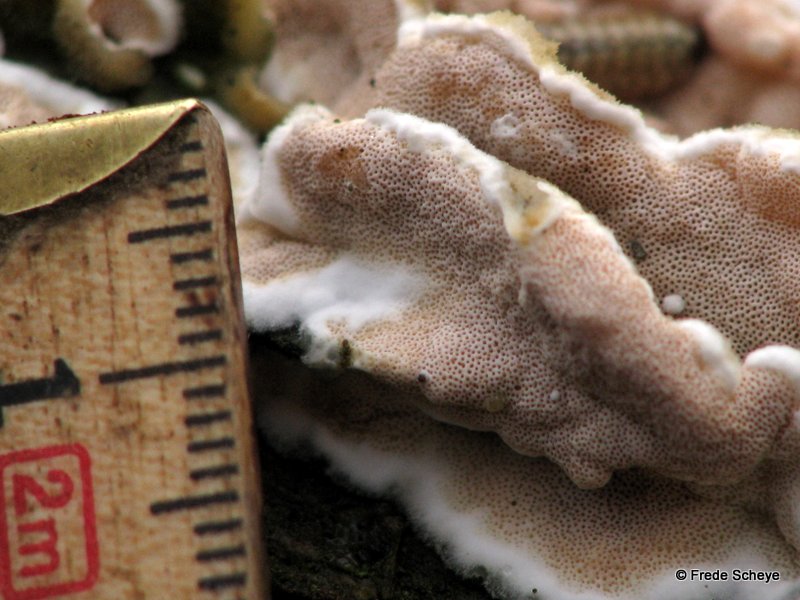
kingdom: Fungi
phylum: Basidiomycota
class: Agaricomycetes
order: Polyporales
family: Irpicaceae
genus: Vitreoporus
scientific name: Vitreoporus dichrous
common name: tofarvet foldporesvamp
